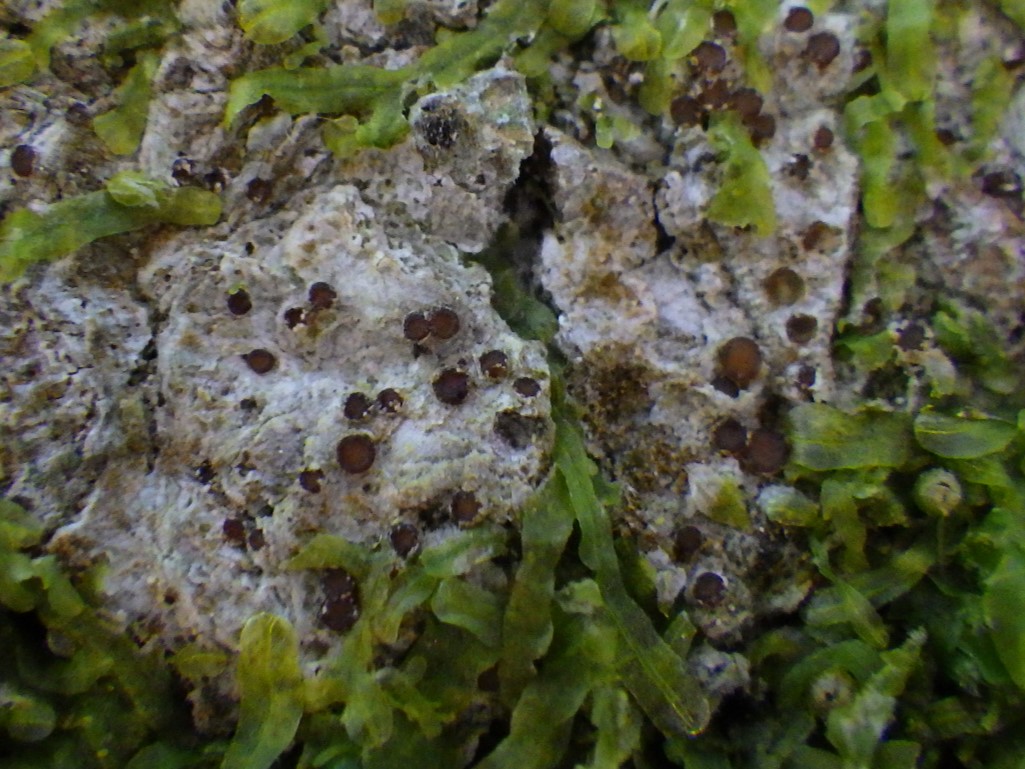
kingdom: Fungi
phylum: Ascomycota
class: Lecanoromycetes
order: Gyalectales
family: Gyalectaceae
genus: Pachyphiale
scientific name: Pachyphiale carneola
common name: rødbrun gammelskovslav
